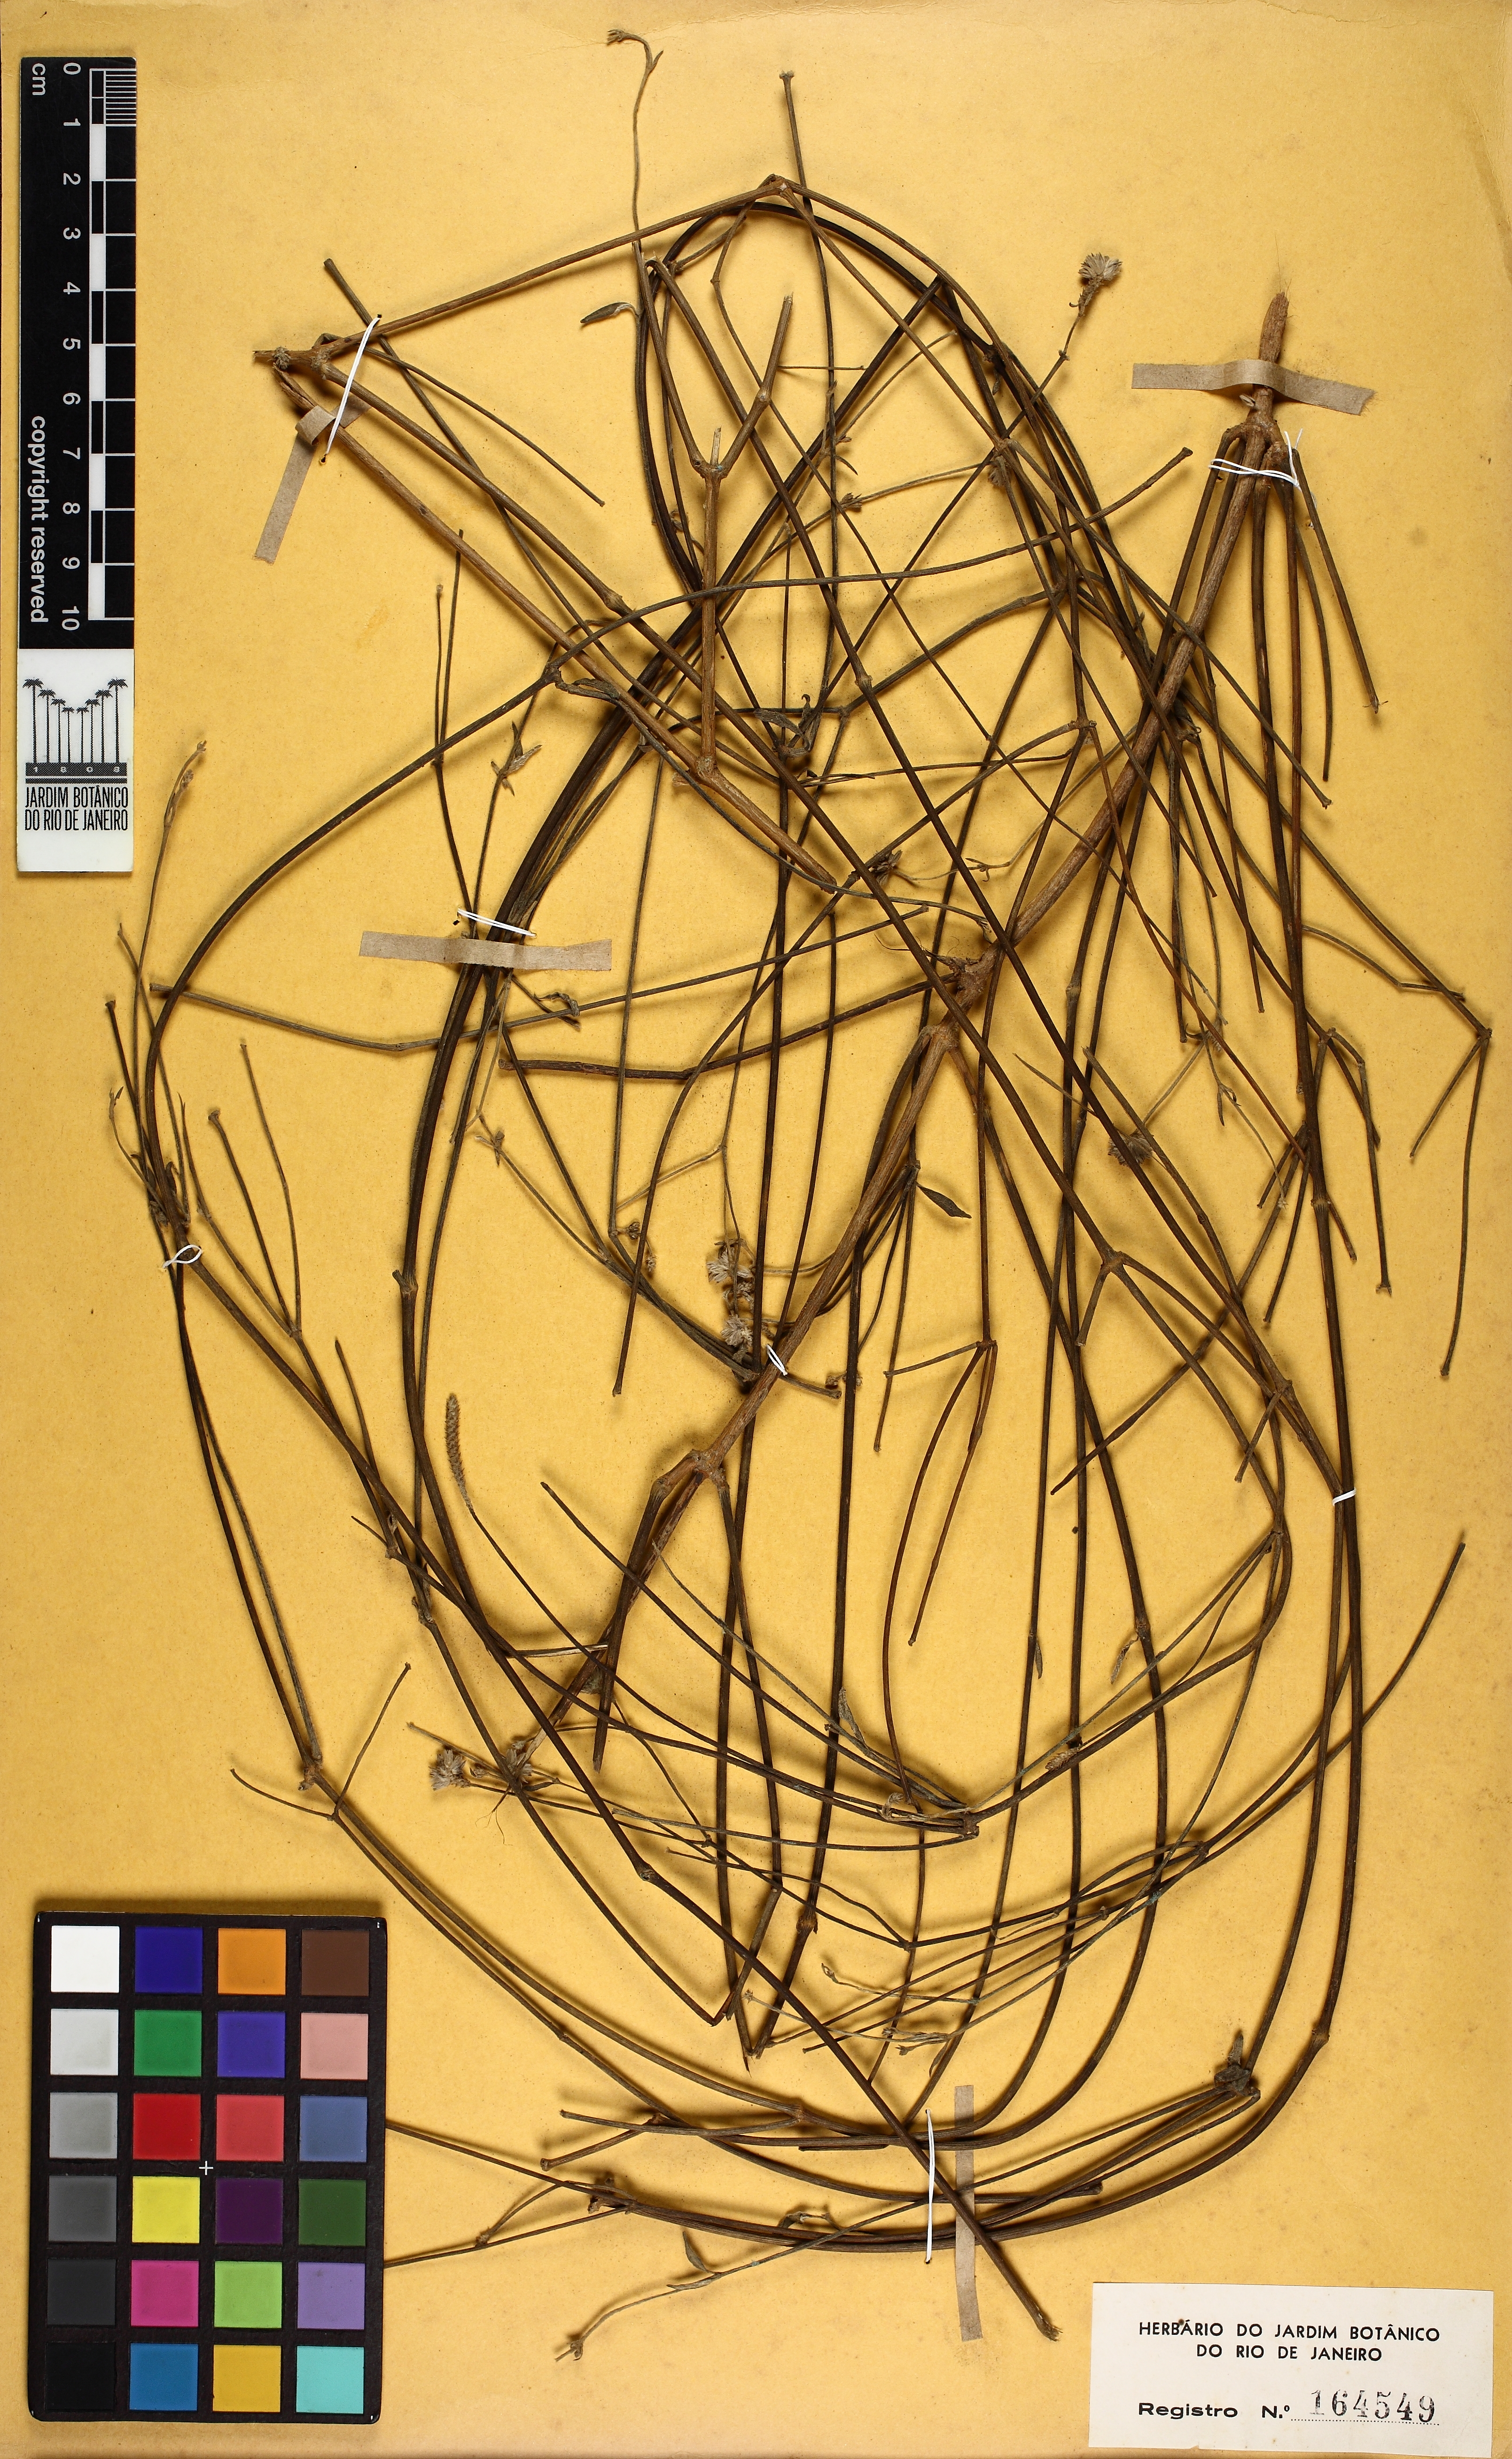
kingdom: Plantae
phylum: Tracheophyta
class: Magnoliopsida
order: Caryophyllales
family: Amaranthaceae
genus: Pfaffia
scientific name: Pfaffia hirtula
